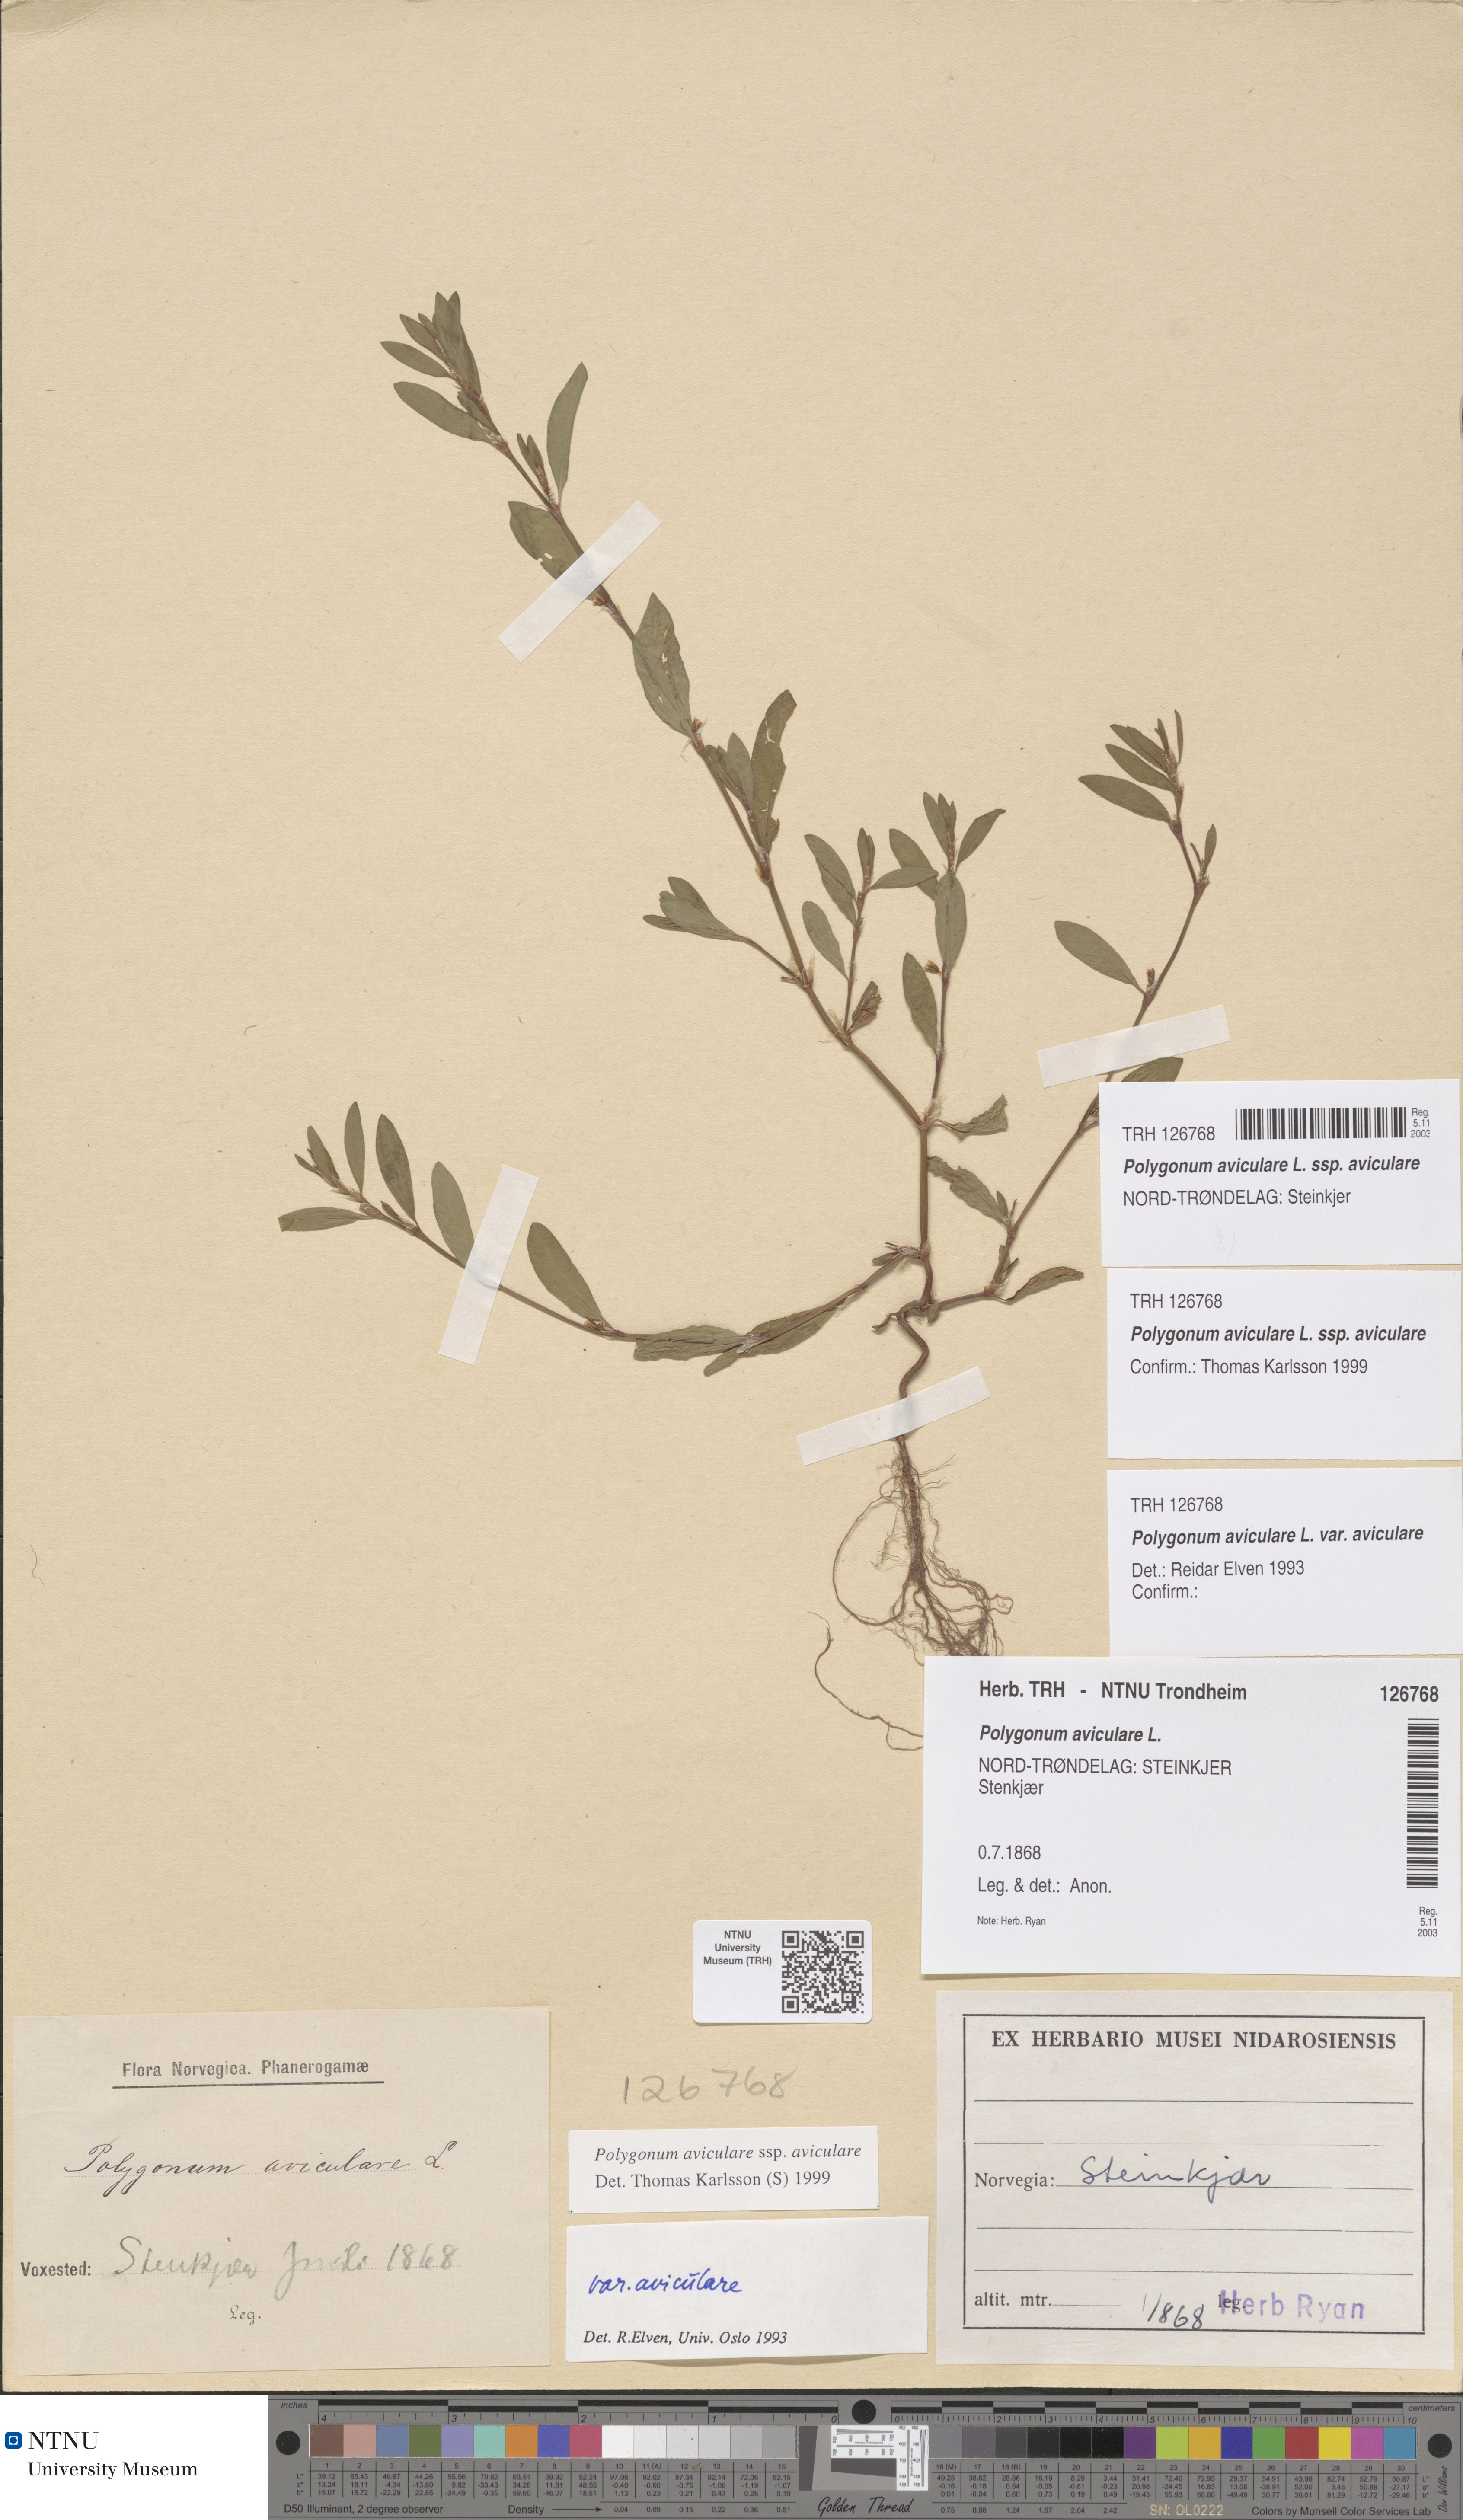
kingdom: Plantae
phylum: Tracheophyta
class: Magnoliopsida
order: Caryophyllales
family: Polygonaceae
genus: Polygonum
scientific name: Polygonum aviculare
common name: Prostrate knotweed
